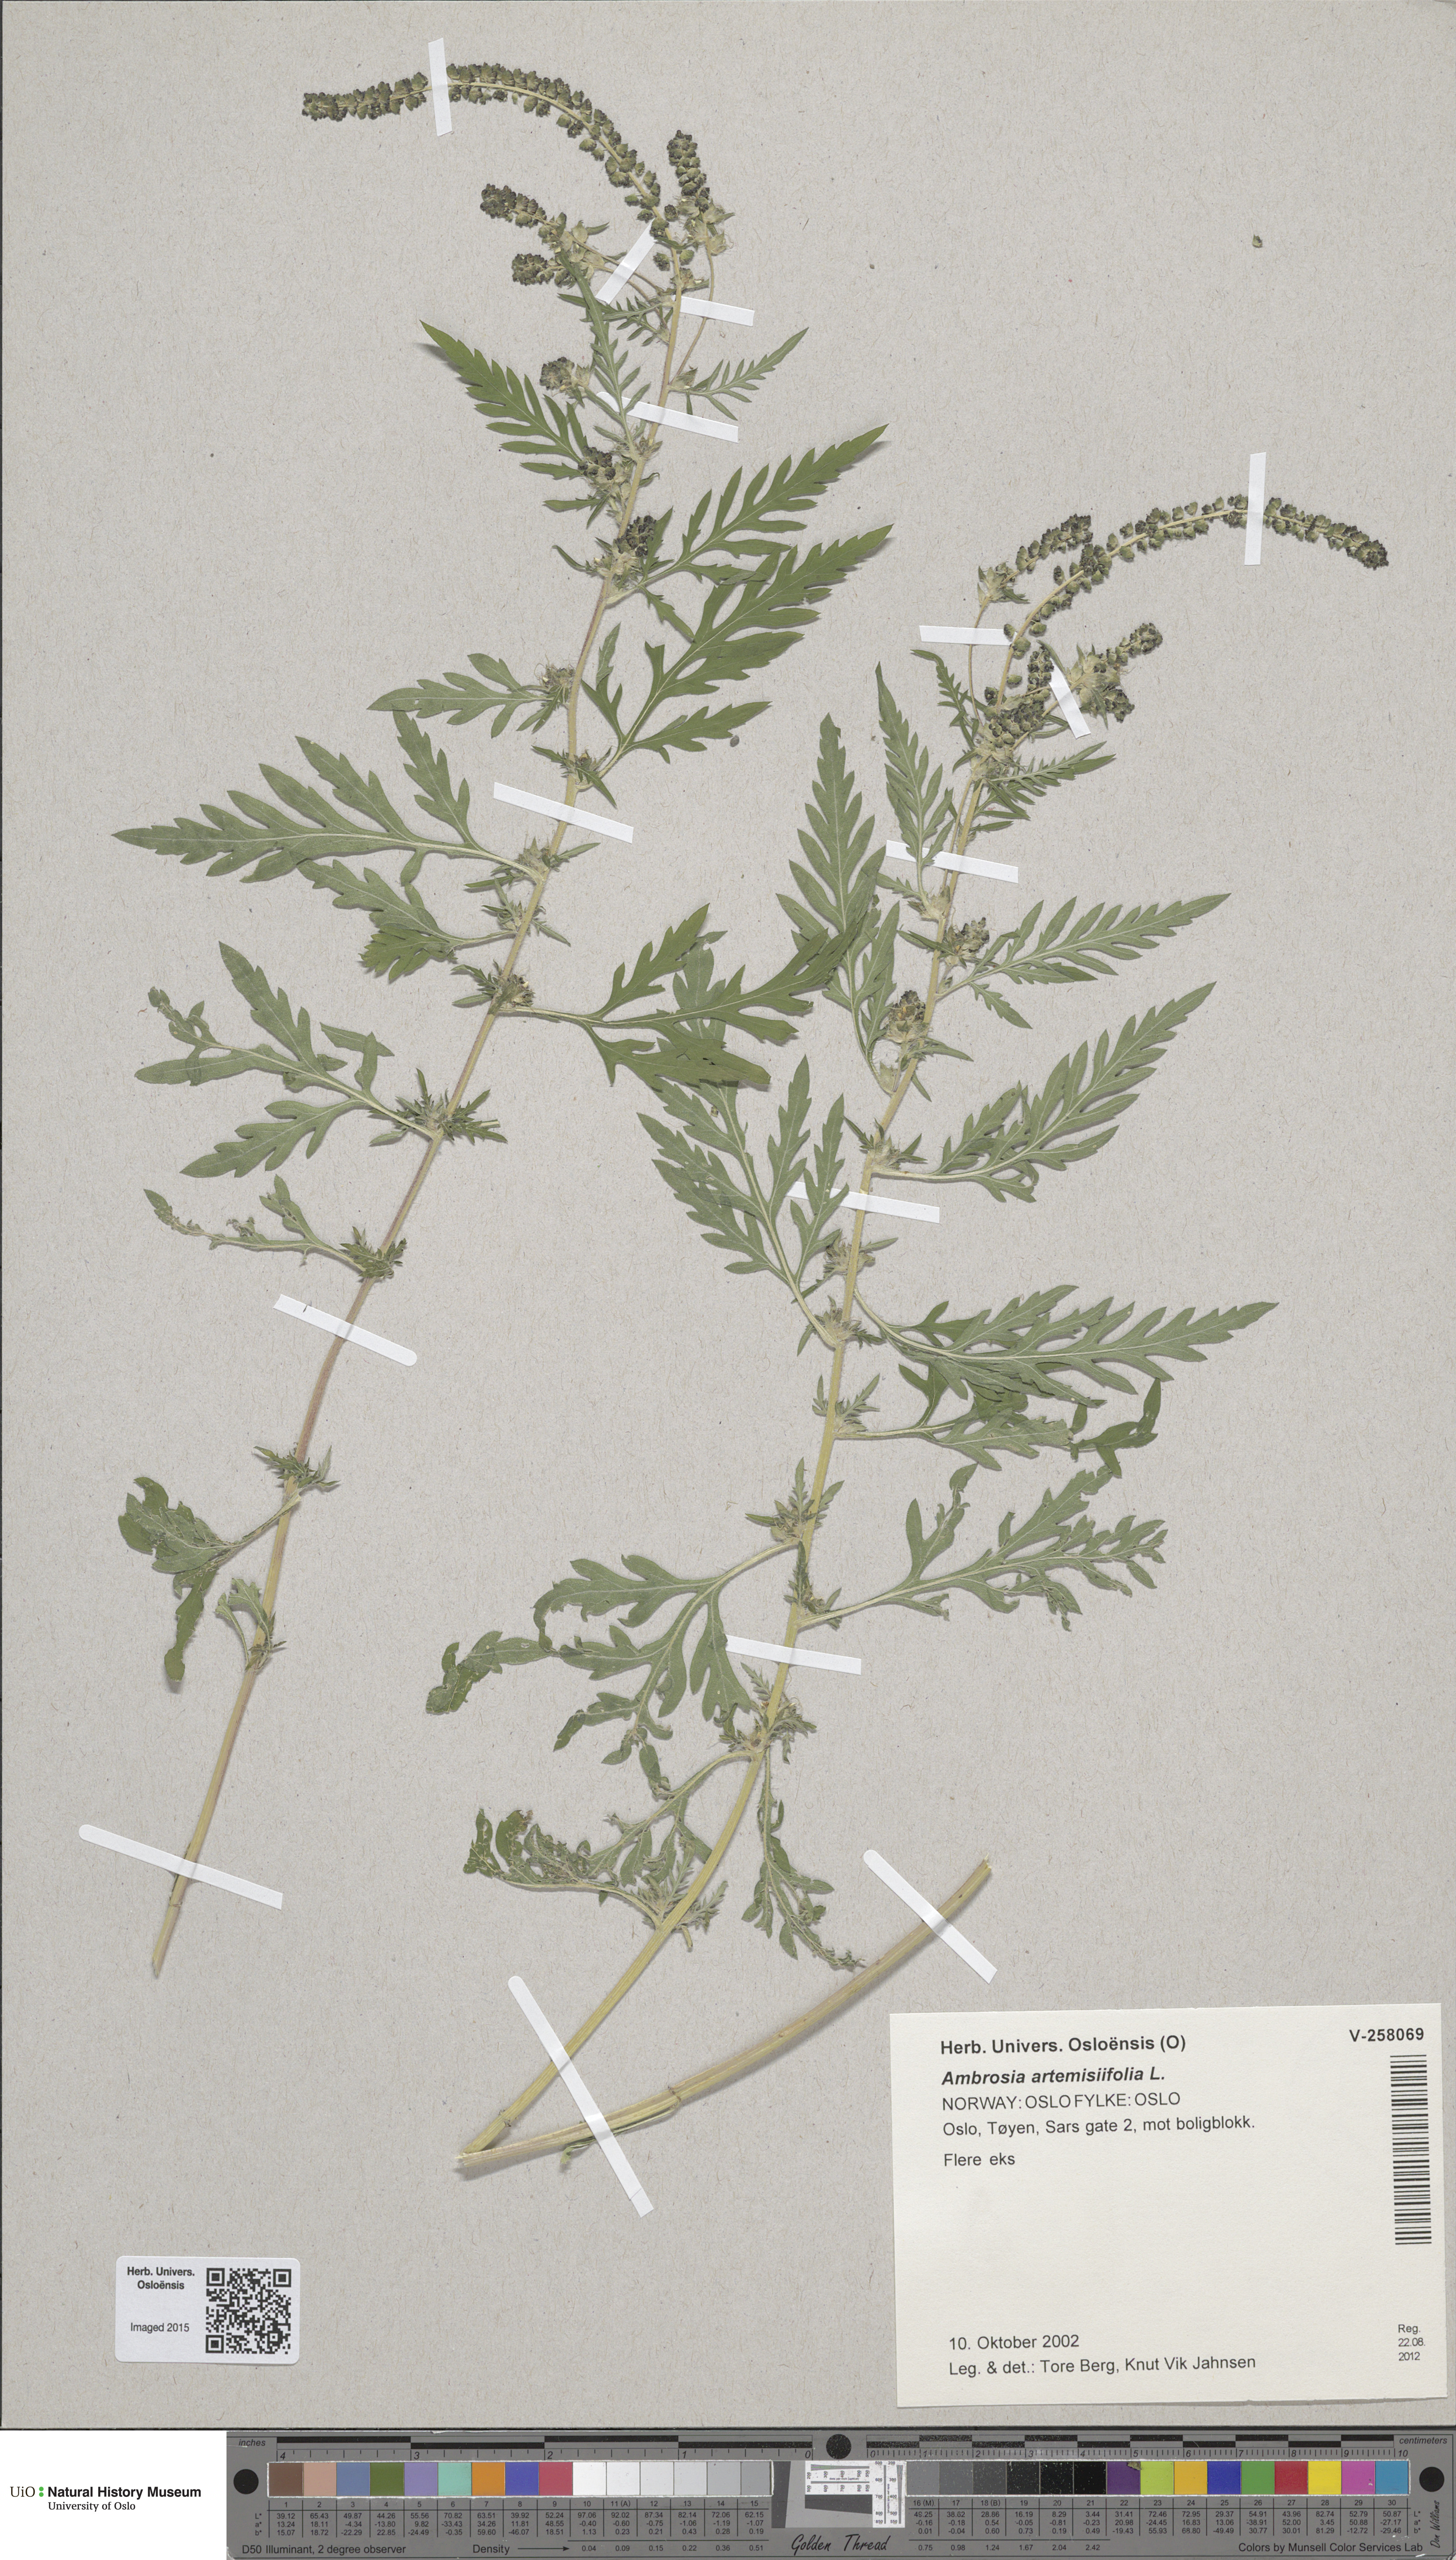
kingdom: Plantae
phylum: Tracheophyta
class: Magnoliopsida
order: Asterales
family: Asteraceae
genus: Ambrosia
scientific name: Ambrosia artemisiifolia
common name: Annual ragweed
